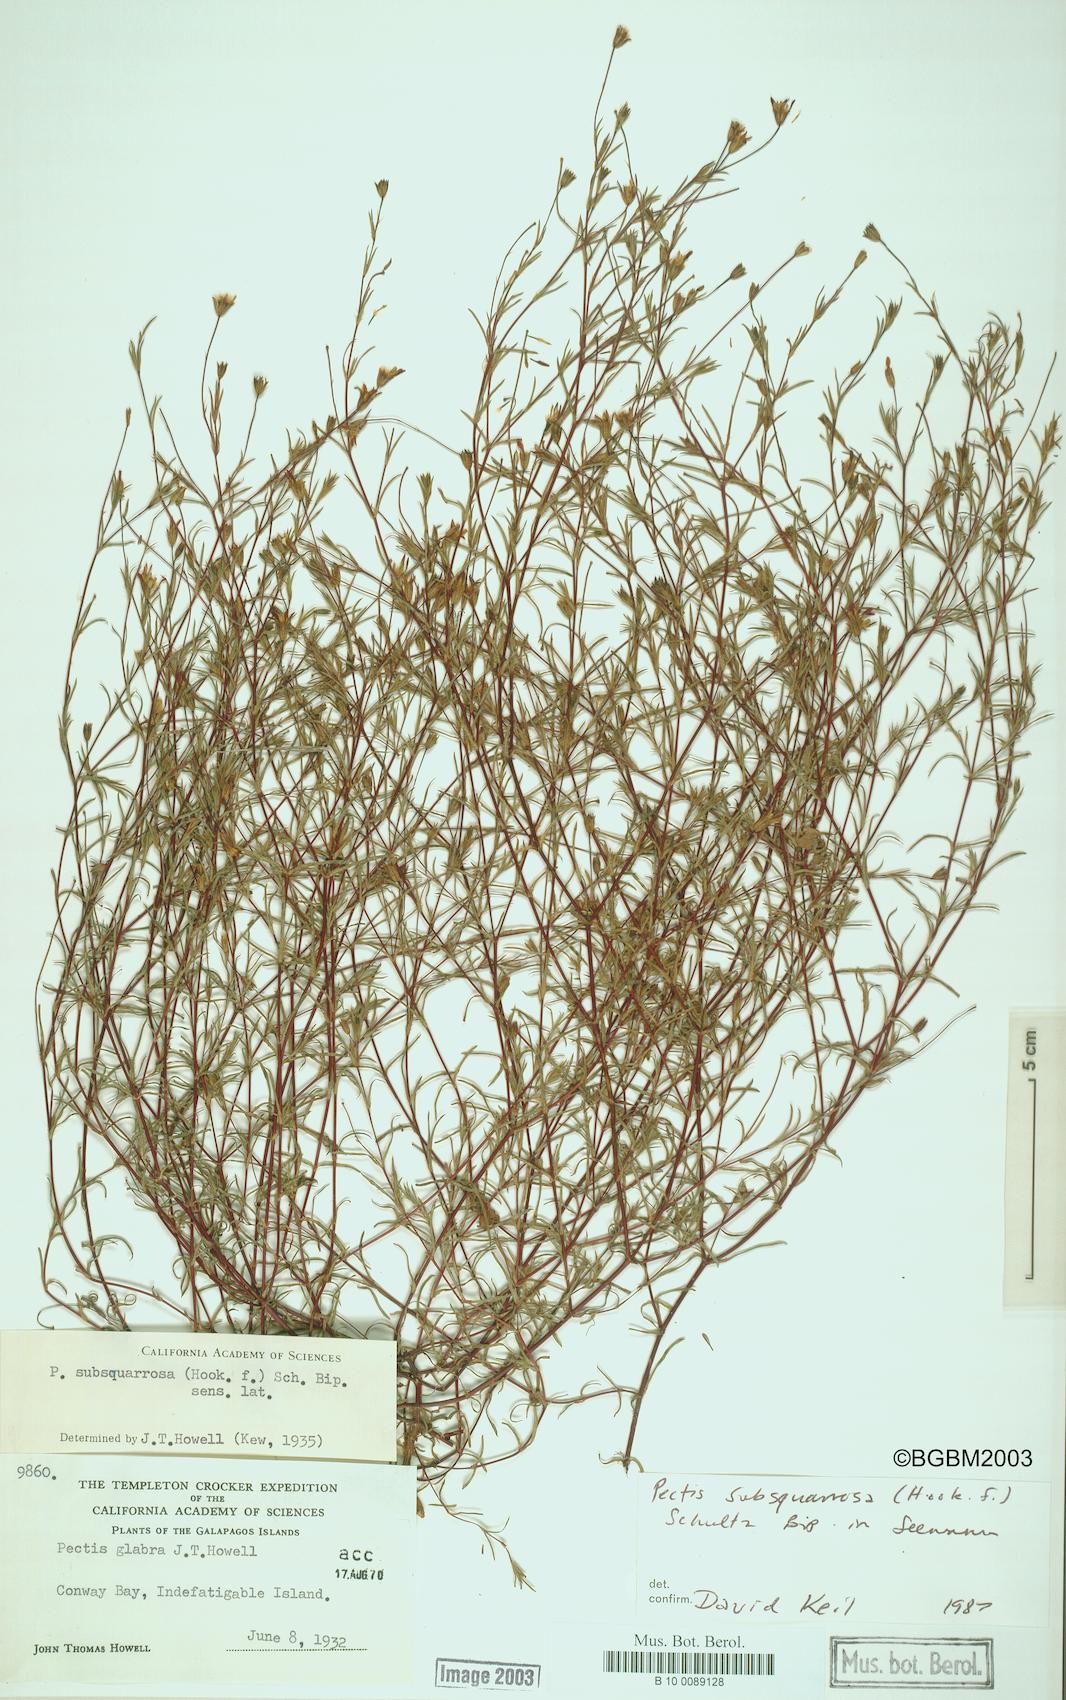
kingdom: Plantae
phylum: Tracheophyta
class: Magnoliopsida
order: Asterales
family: Asteraceae
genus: Pectis
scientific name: Pectis subsquarrosa
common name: Pectis
